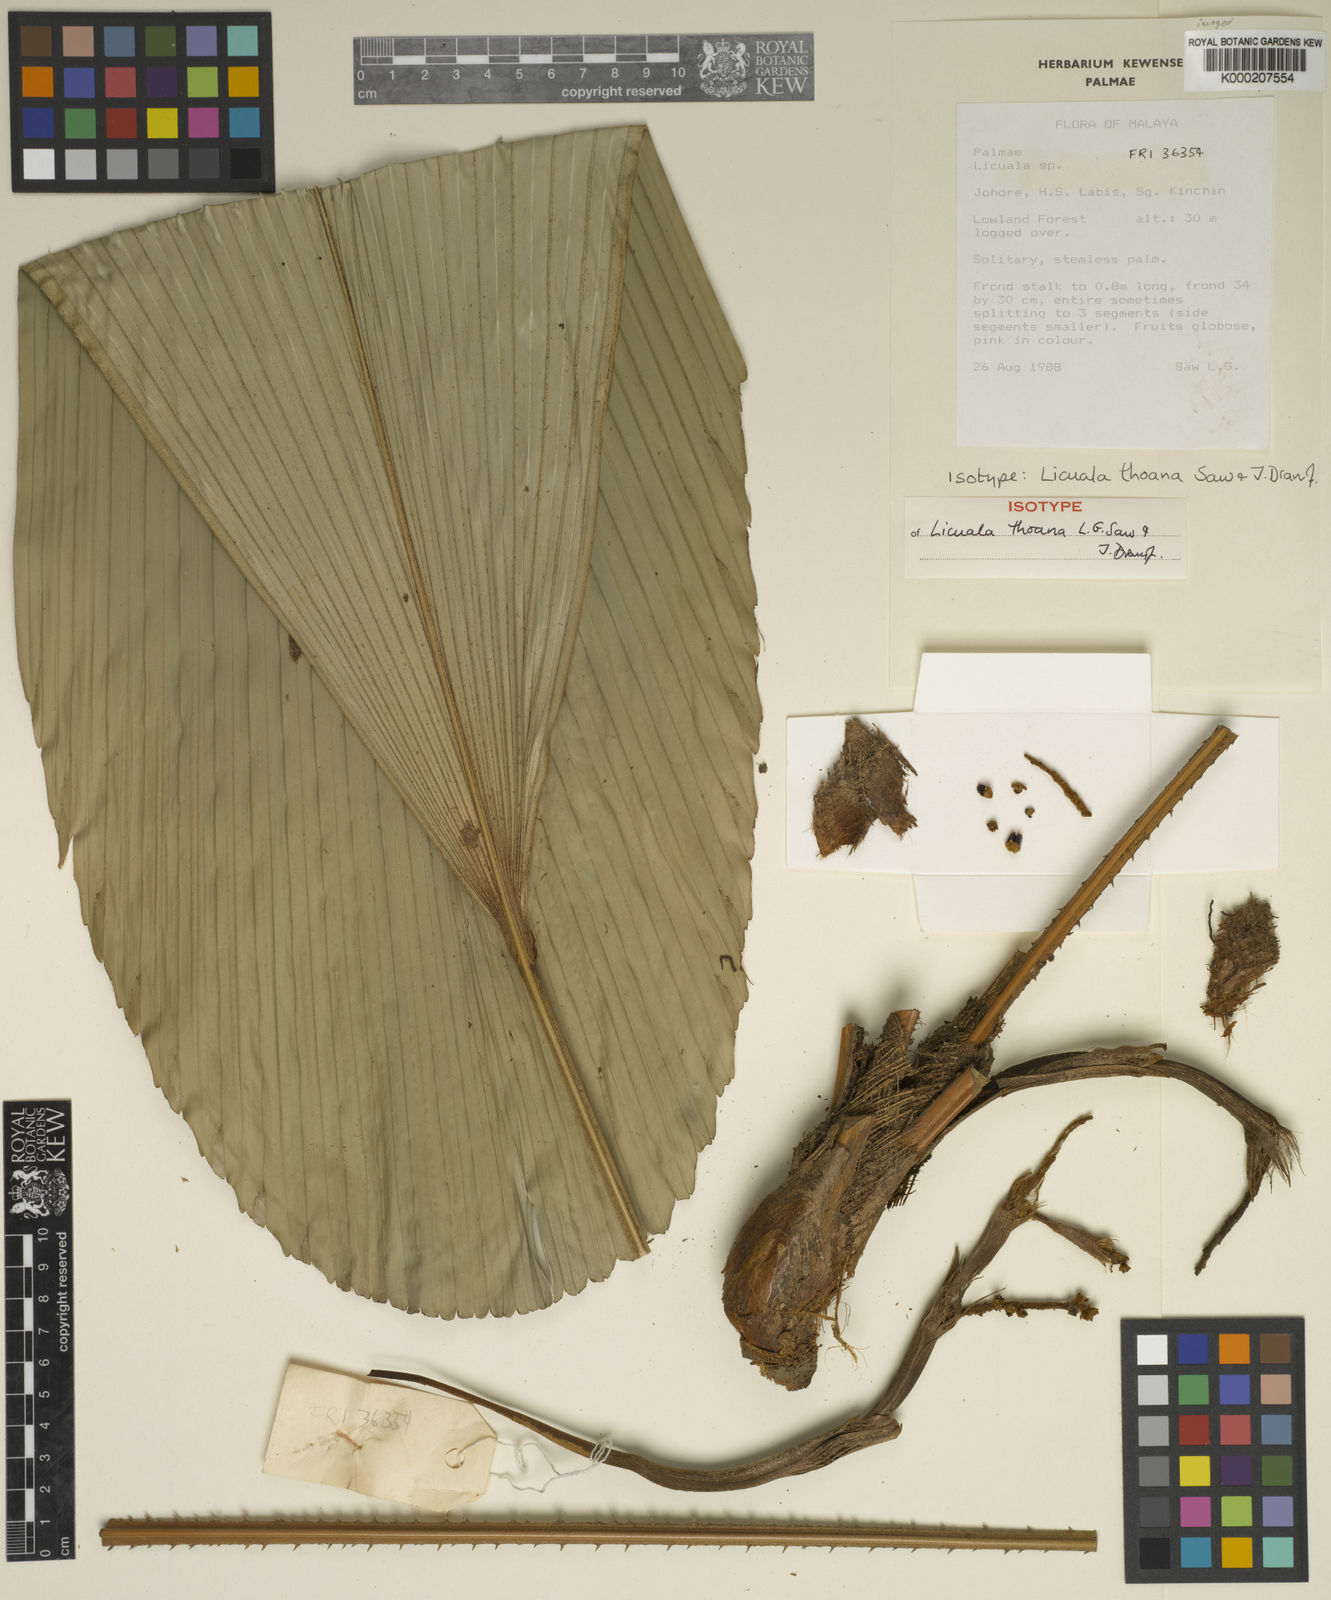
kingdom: Plantae
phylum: Tracheophyta
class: Liliopsida
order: Arecales
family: Arecaceae
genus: Licuala
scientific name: Licuala thoana
